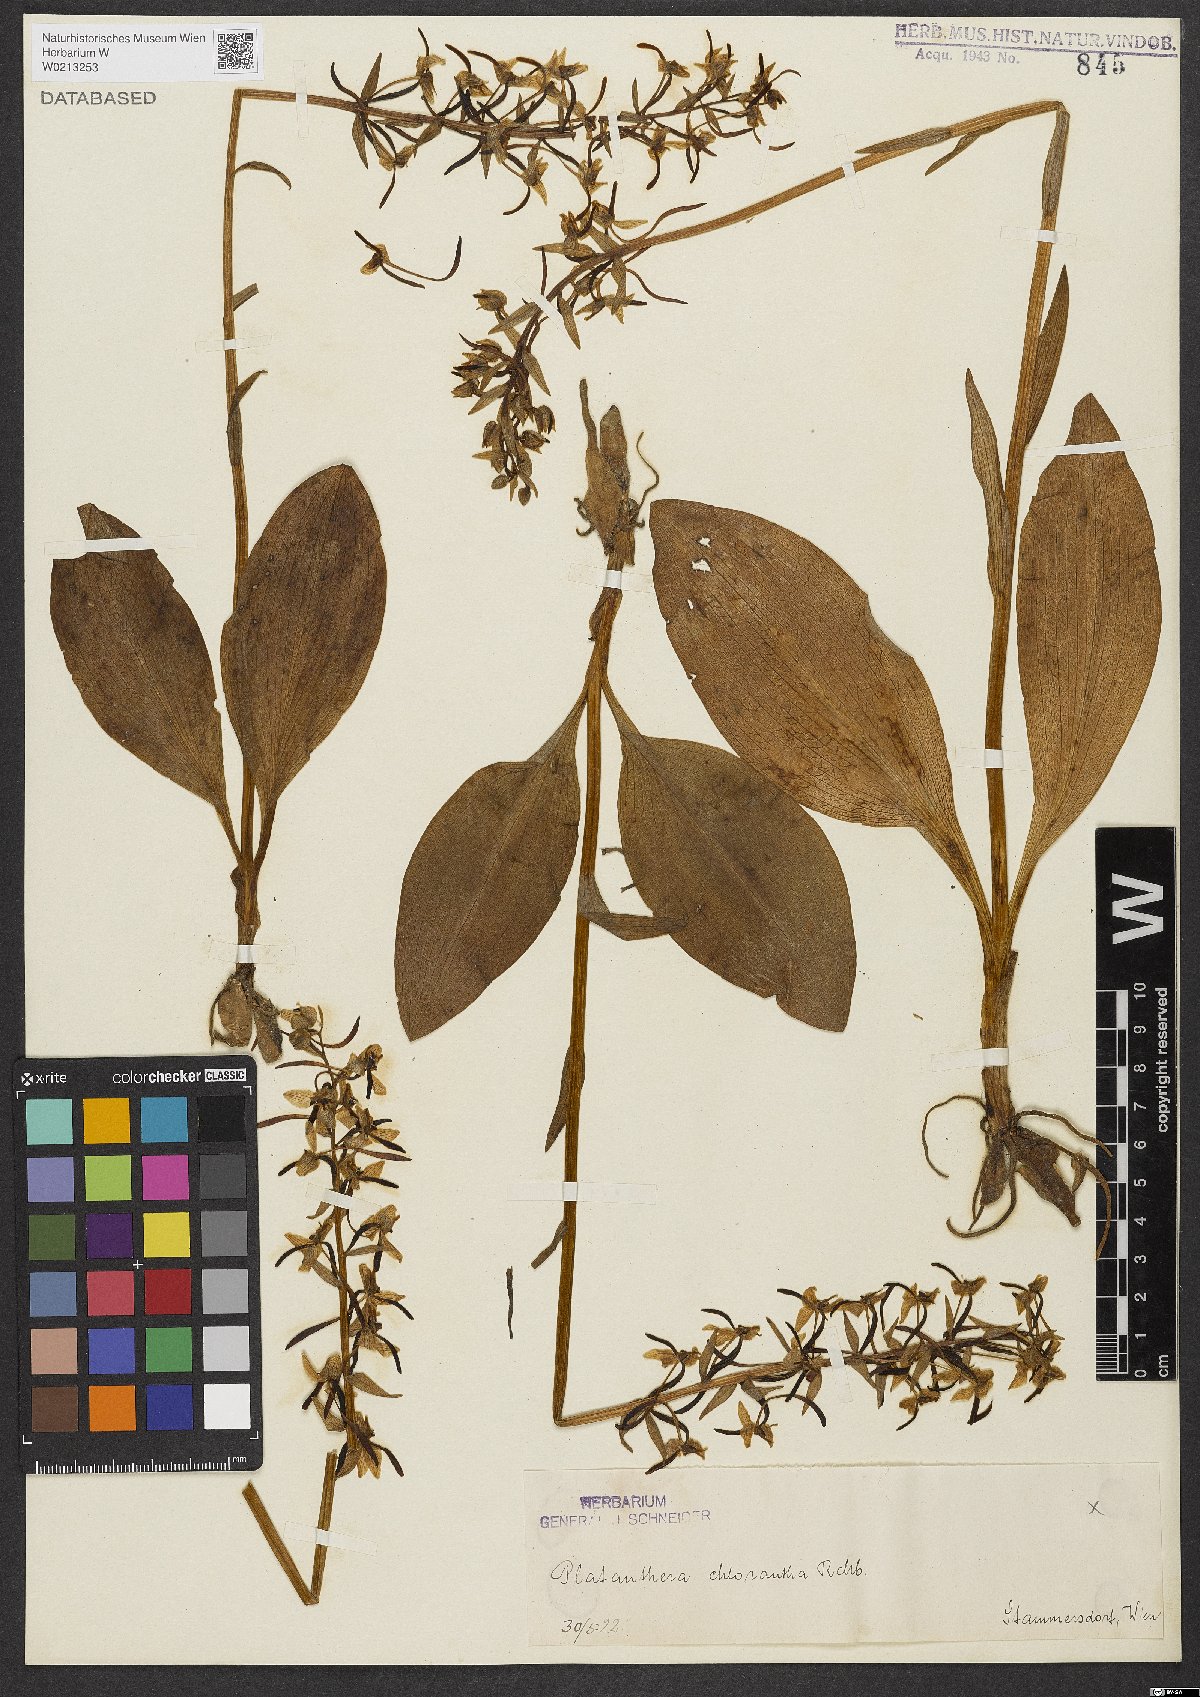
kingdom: Plantae
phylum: Tracheophyta
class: Liliopsida
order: Asparagales
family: Orchidaceae
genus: Platanthera
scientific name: Platanthera chlorantha
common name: Greater butterfly-orchid
